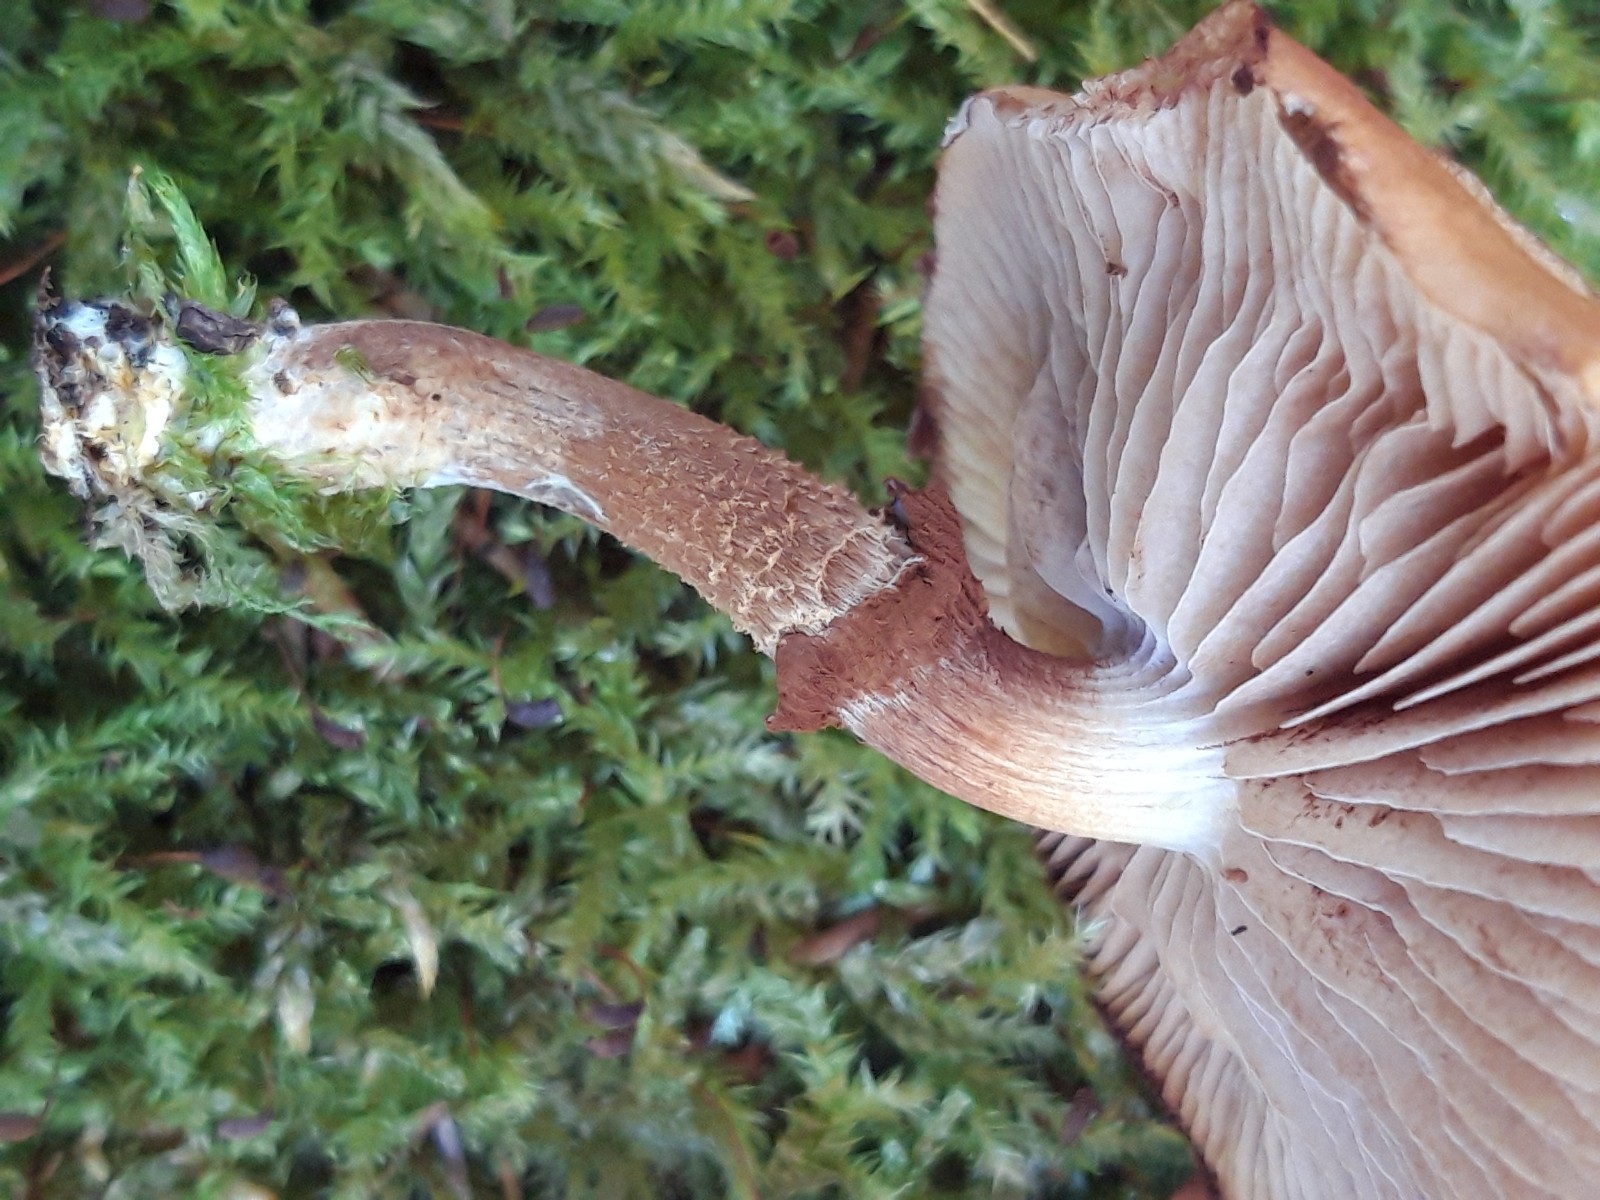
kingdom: Fungi
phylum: Basidiomycota
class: Agaricomycetes
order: Agaricales
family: Strophariaceae
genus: Kuehneromyces
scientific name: Kuehneromyces mutabilis
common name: foranderlig skælhat
